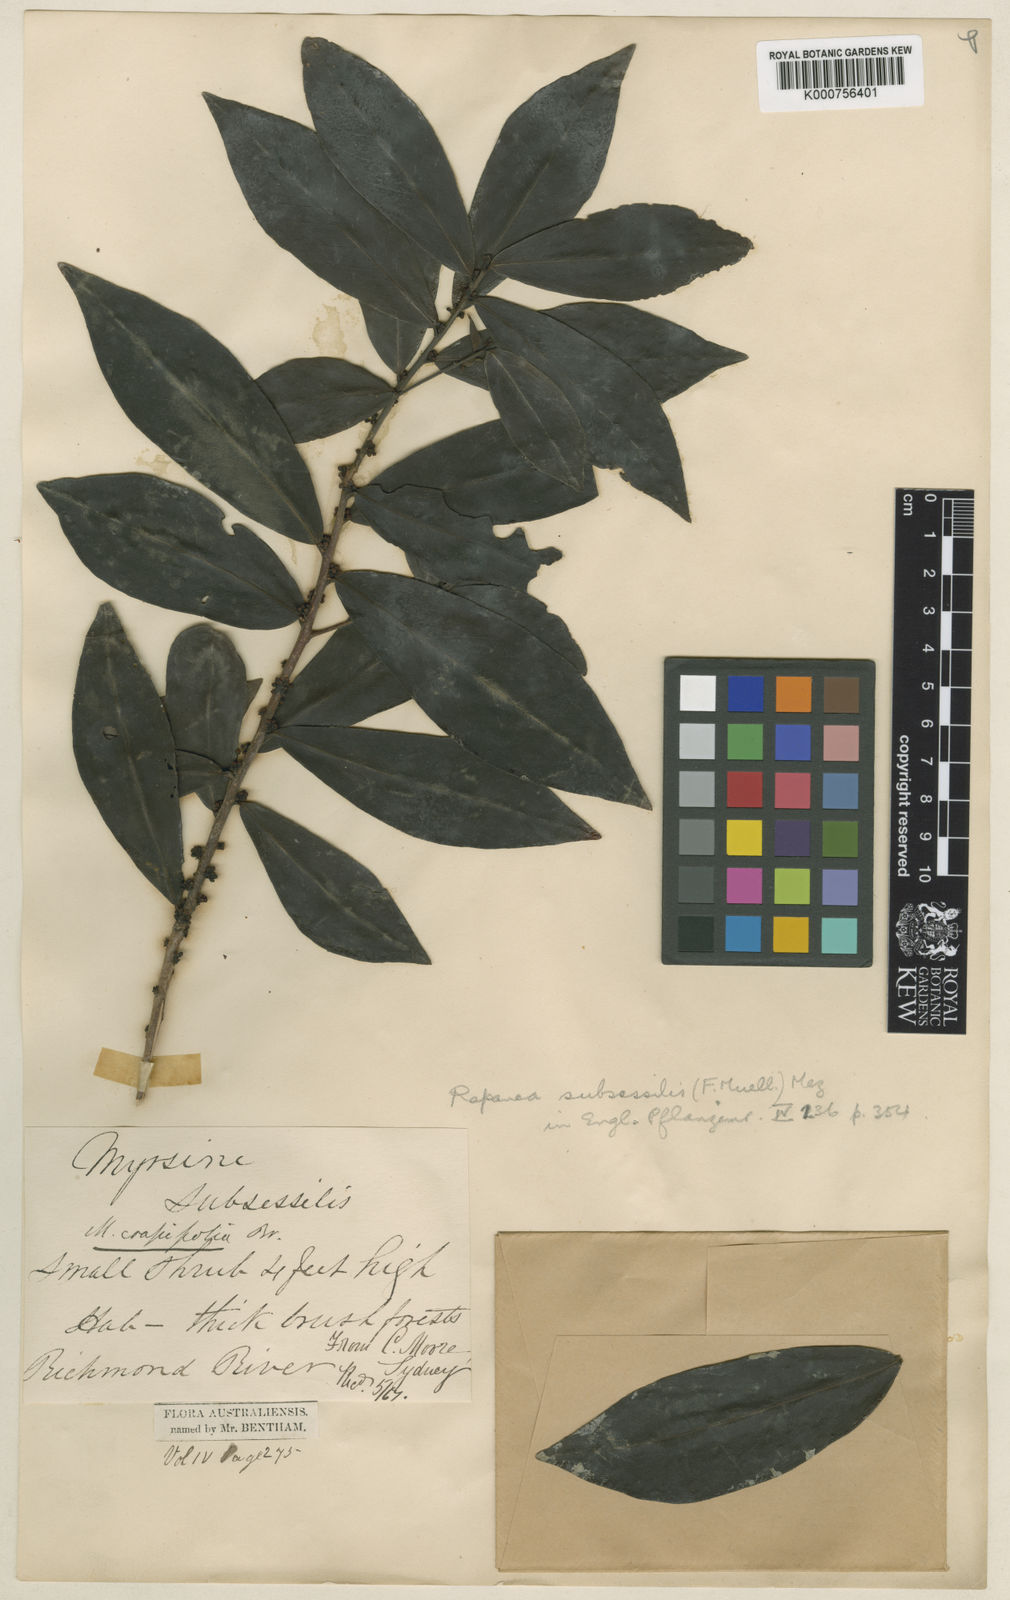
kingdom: Plantae
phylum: Tracheophyta
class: Magnoliopsida
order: Ericales
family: Primulaceae
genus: Myrsine
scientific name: Myrsine subsessilis
